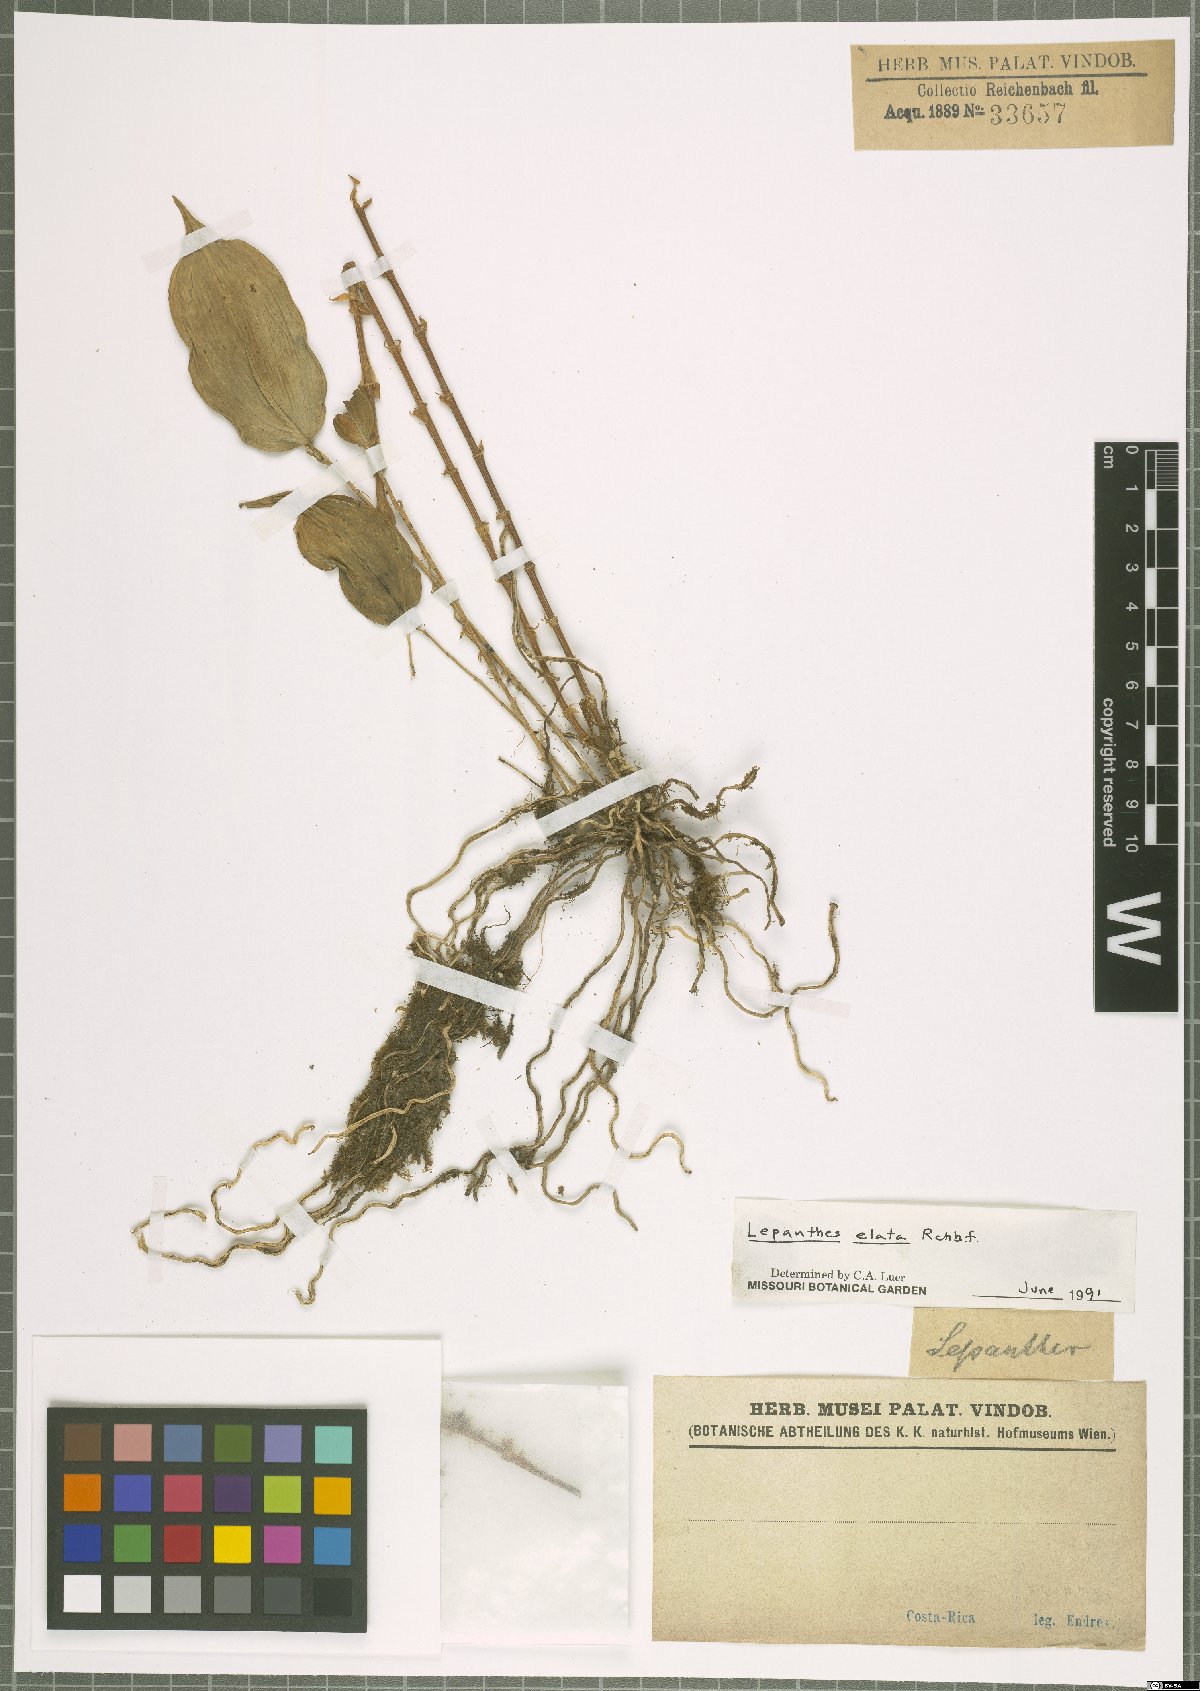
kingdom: Plantae
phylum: Tracheophyta
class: Liliopsida
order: Asparagales
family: Orchidaceae
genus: Lepanthes
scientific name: Lepanthes elata
